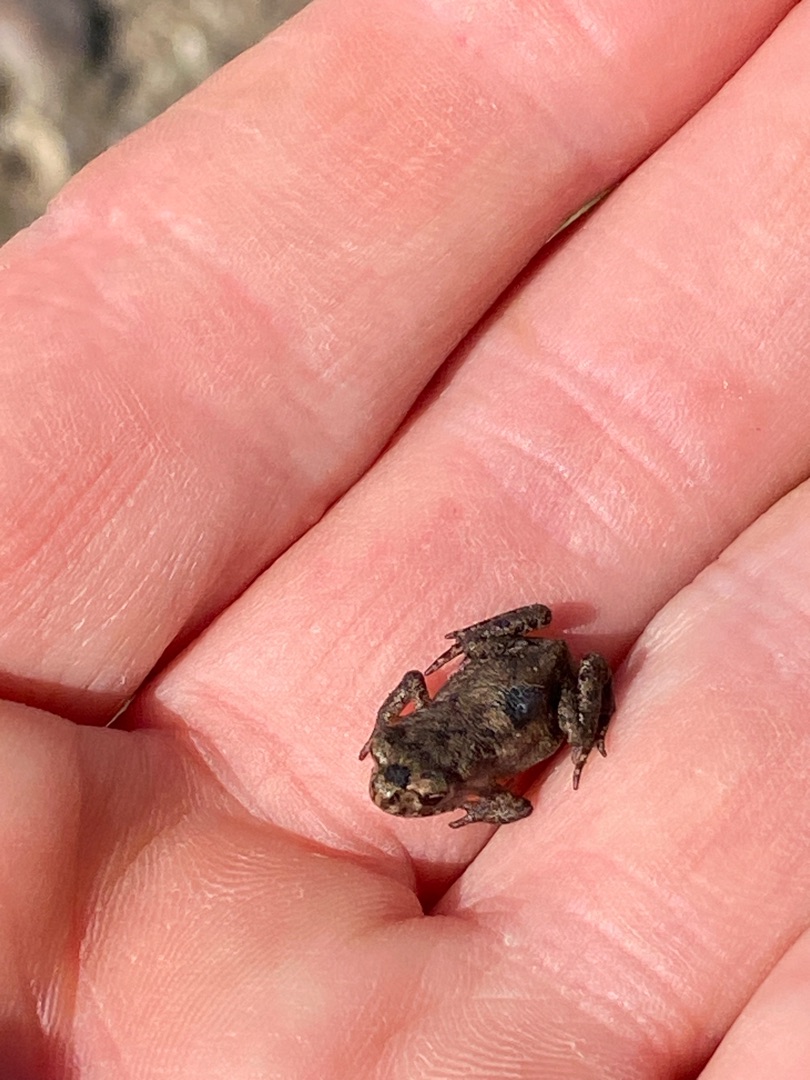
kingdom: Animalia
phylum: Chordata
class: Amphibia
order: Anura
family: Bufonidae
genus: Bufo
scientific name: Bufo bufo
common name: Skrubtudse
